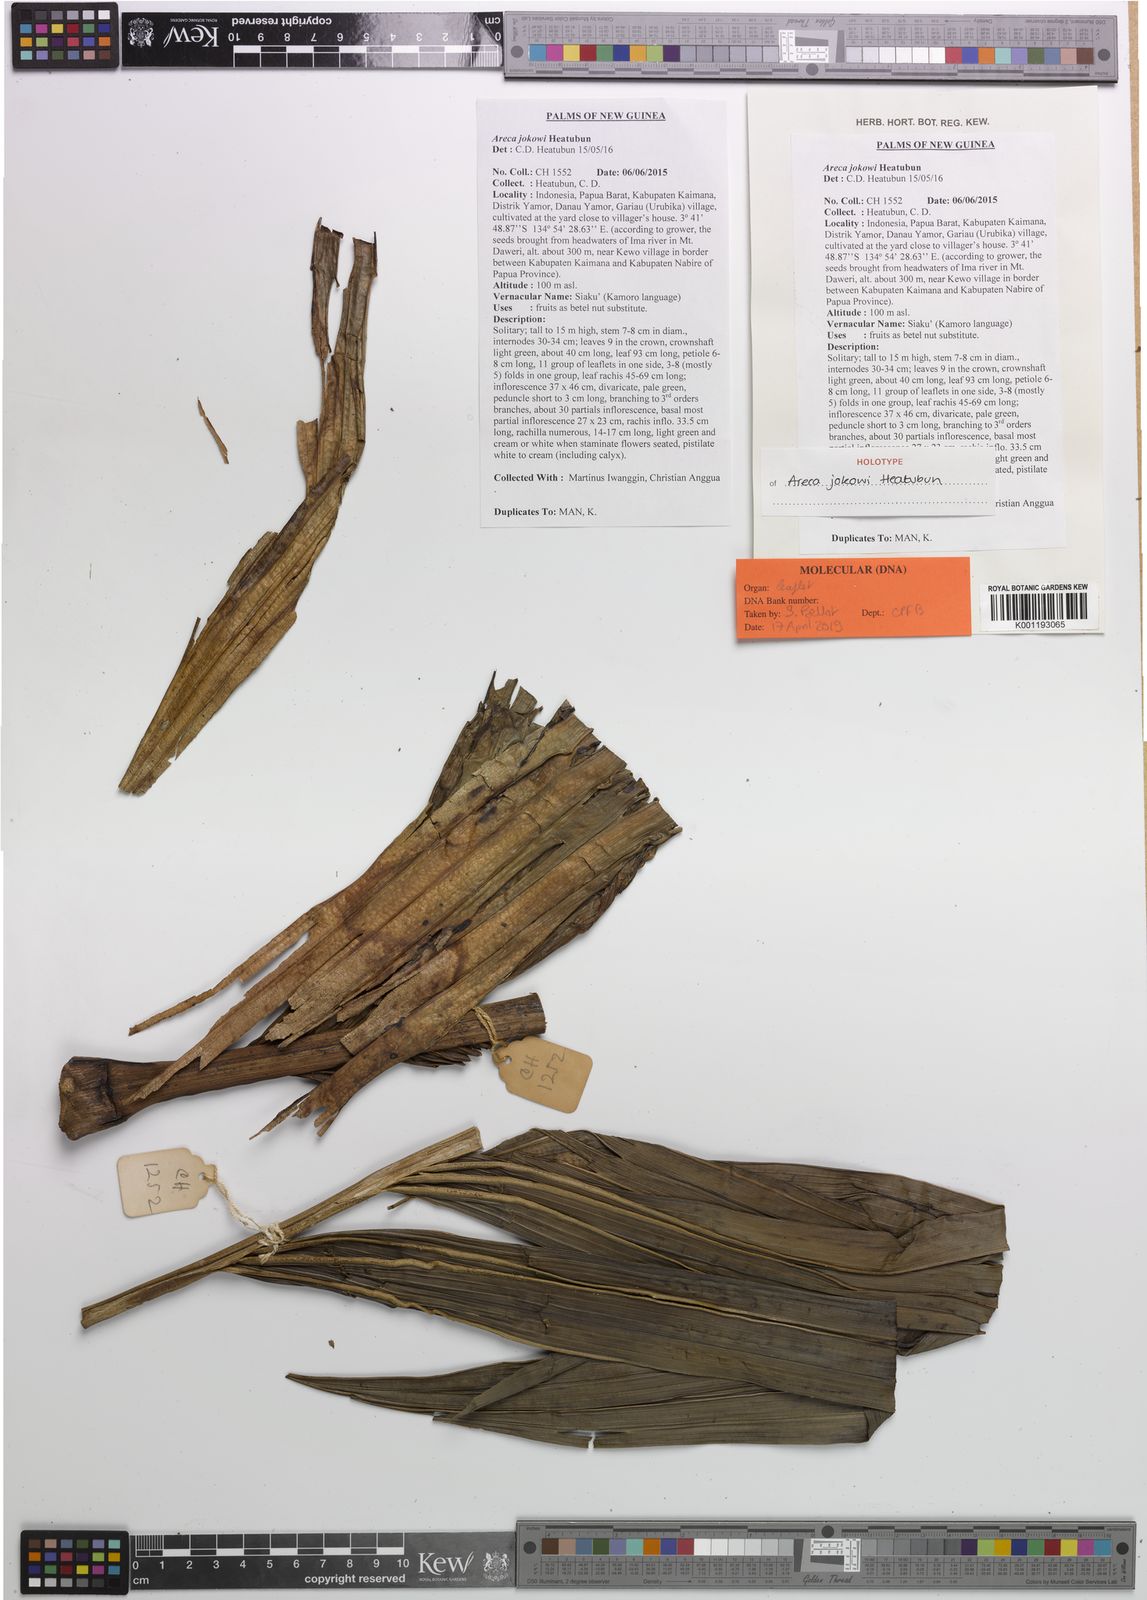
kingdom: Plantae
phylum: Tracheophyta
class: Liliopsida
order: Arecales
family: Arecaceae
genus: Areca
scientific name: Areca jokowi
